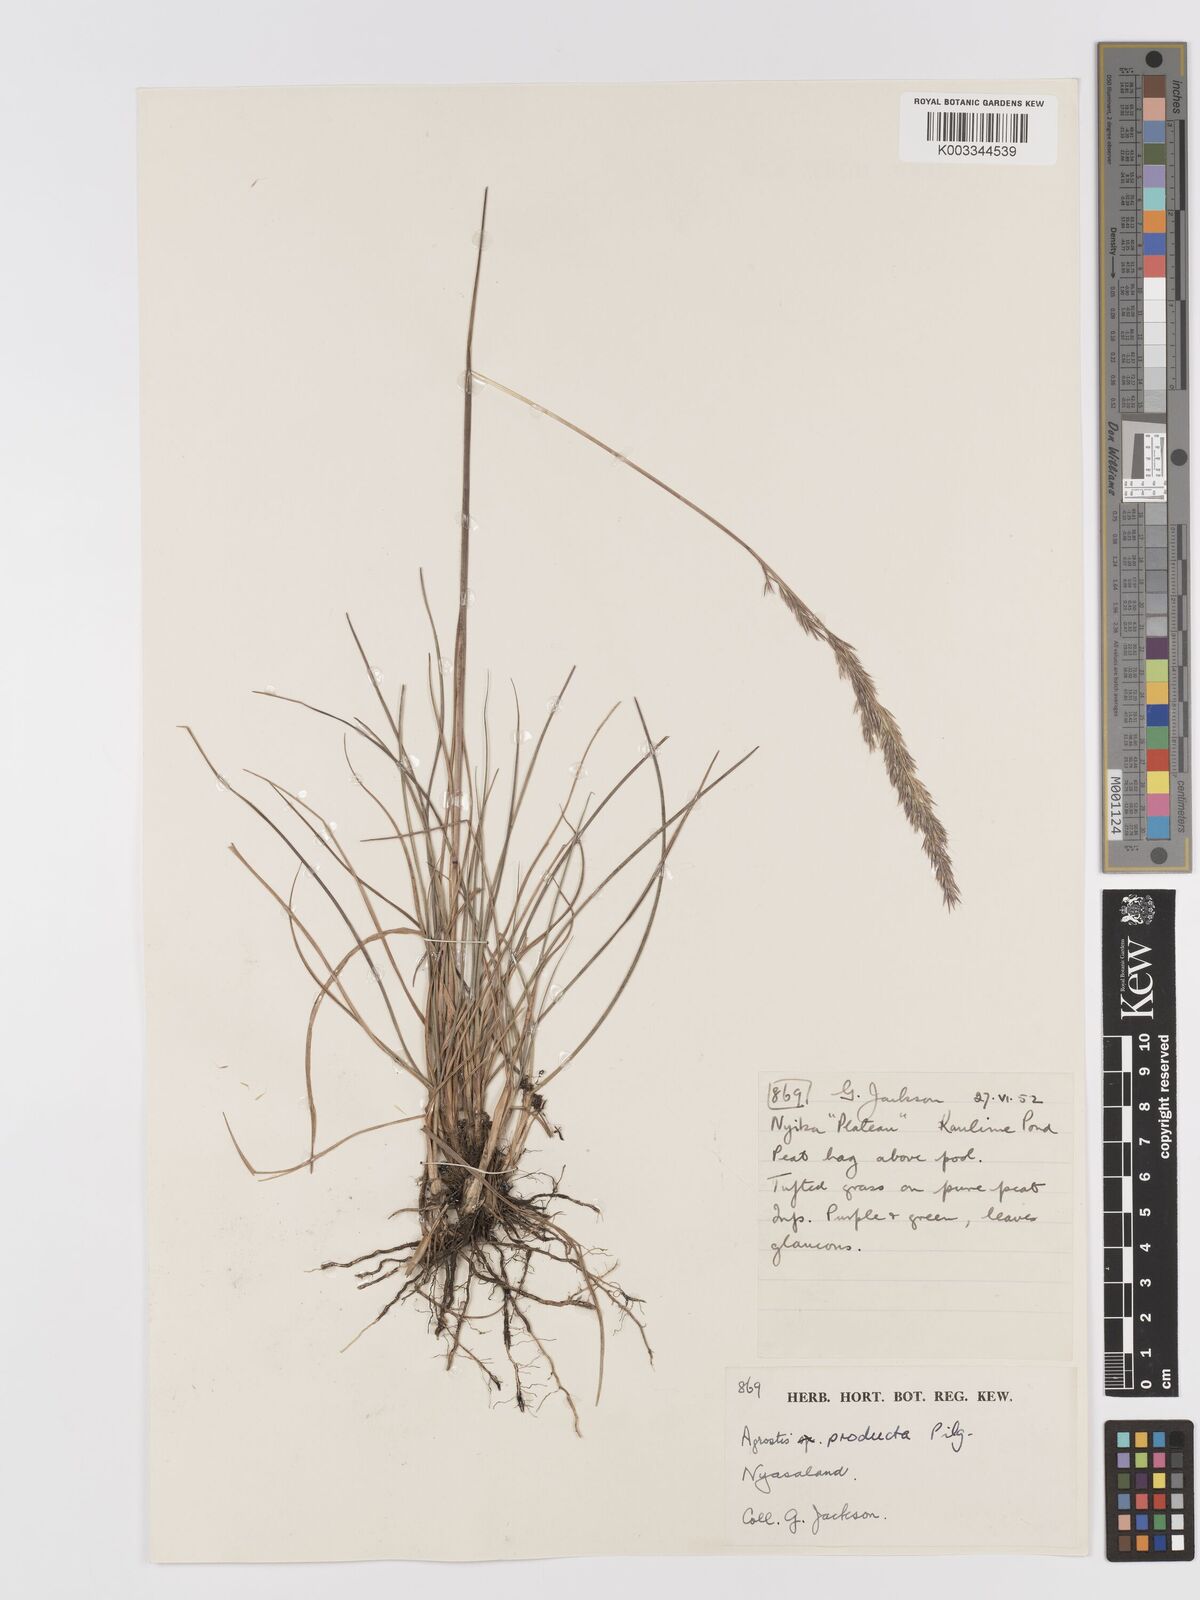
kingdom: Plantae
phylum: Tracheophyta
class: Liliopsida
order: Poales
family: Poaceae
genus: Agrostis
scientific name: Agrostis producta
